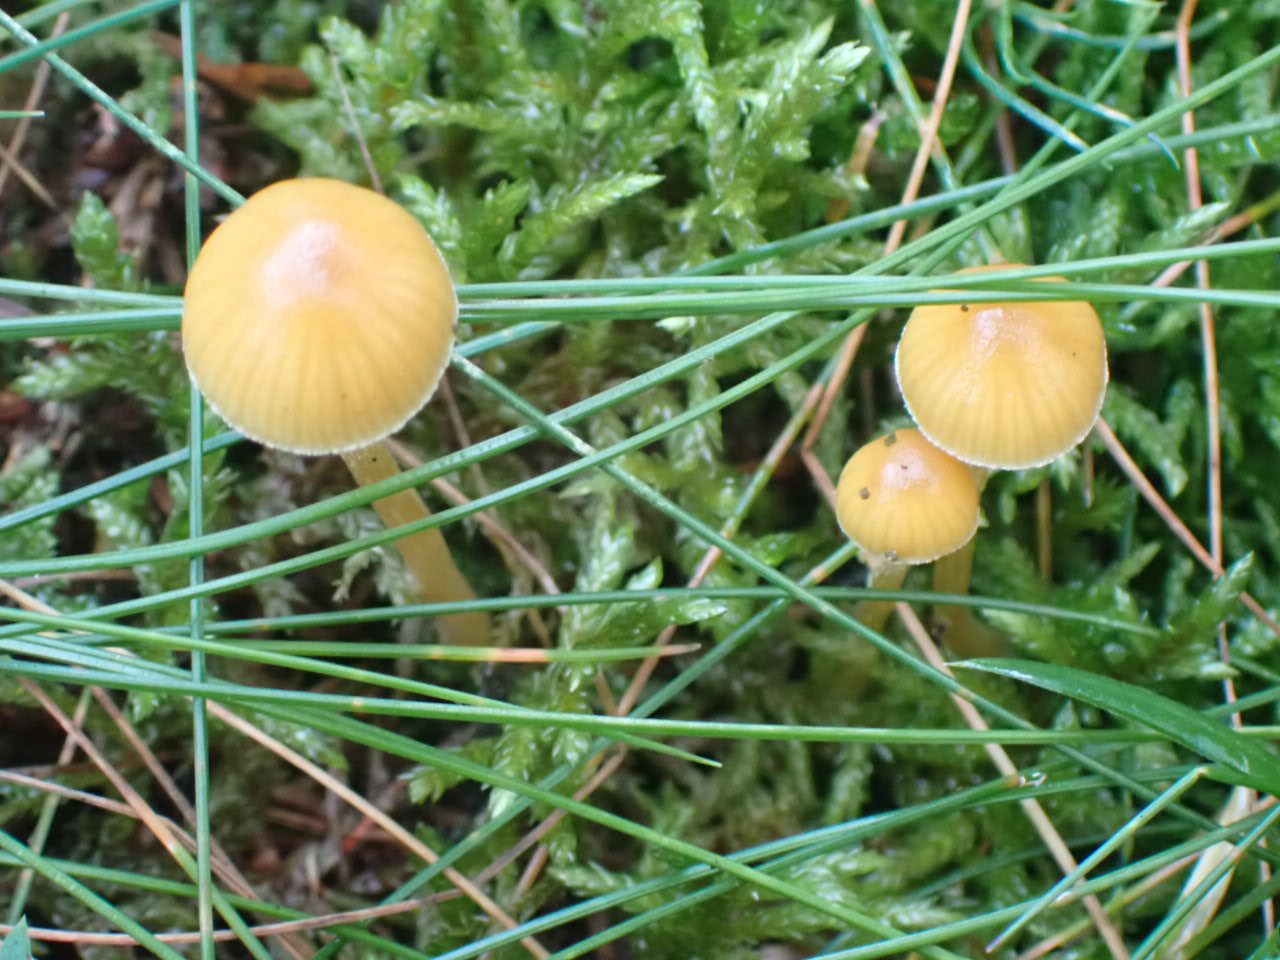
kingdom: Fungi
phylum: Basidiomycota
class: Agaricomycetes
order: Agaricales
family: Hymenogastraceae
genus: Galerina
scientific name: Galerina pumila
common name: honninggul hjelmhat
